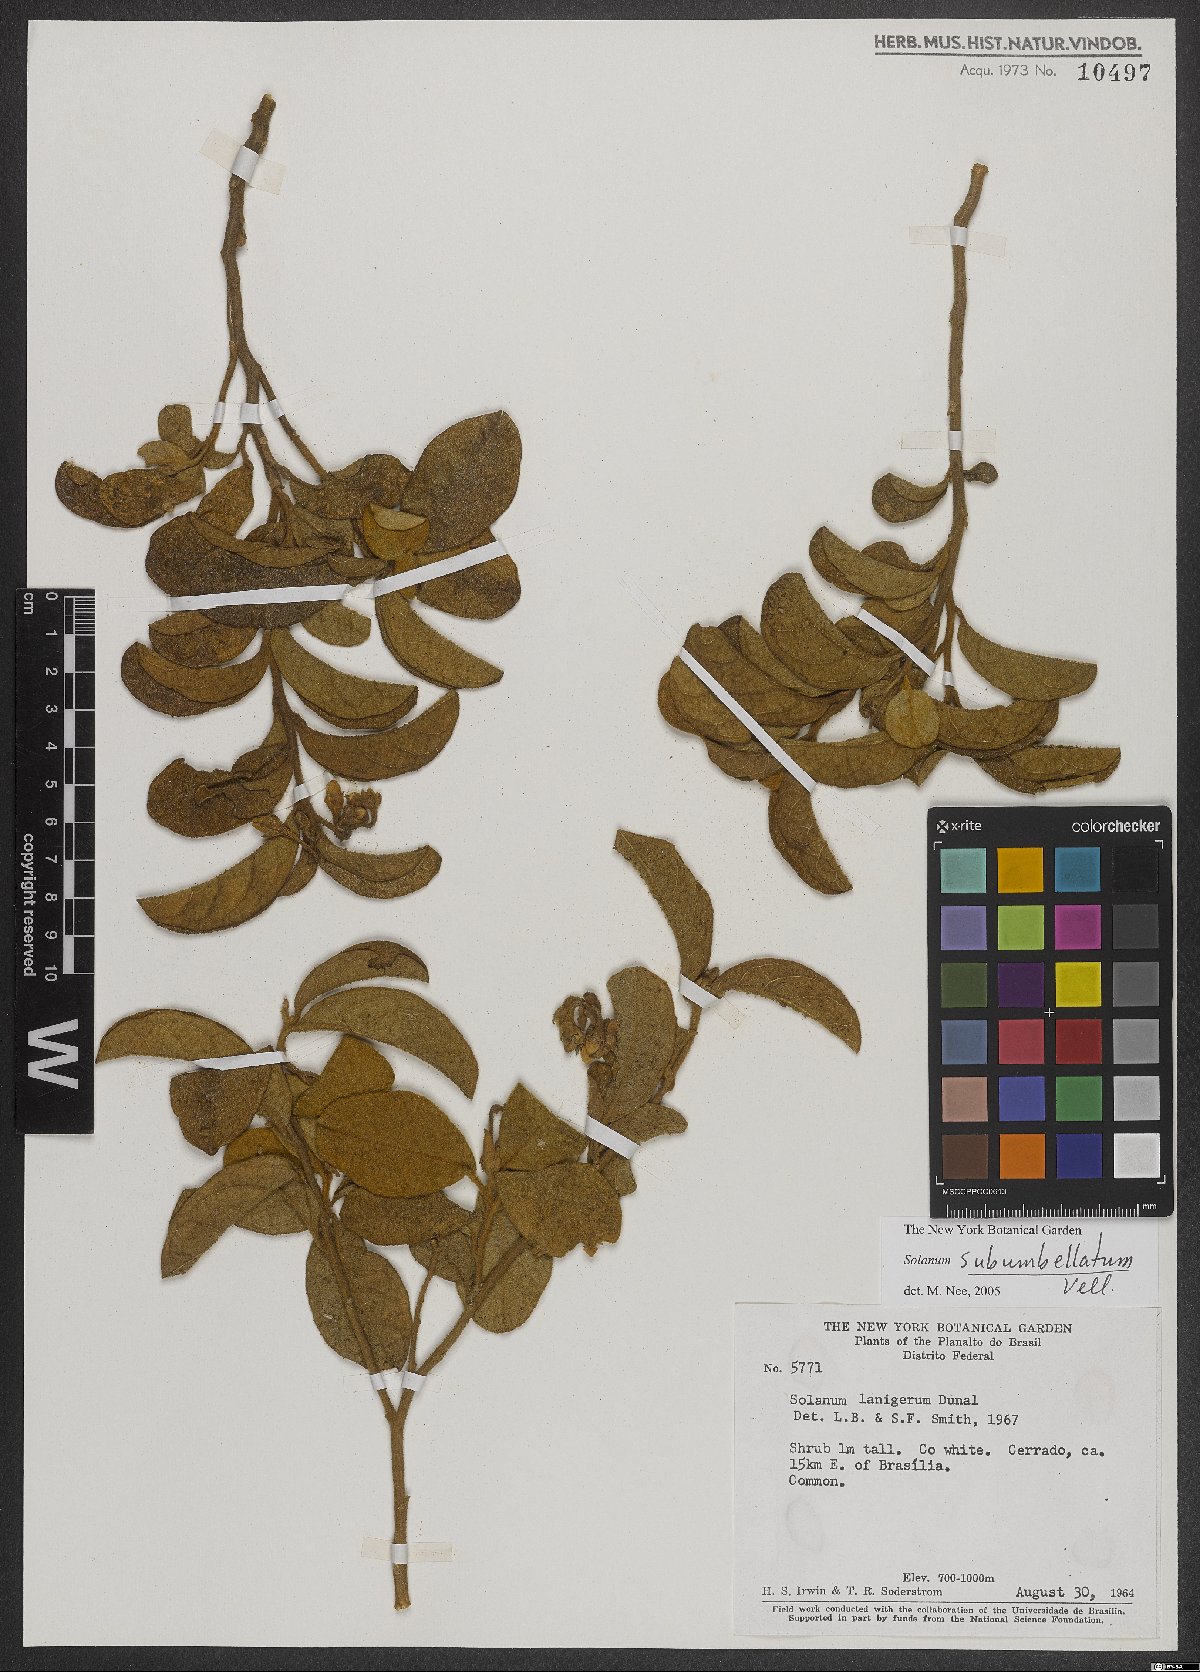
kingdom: Plantae
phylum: Tracheophyta
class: Magnoliopsida
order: Solanales
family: Solanaceae
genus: Solanum
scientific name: Solanum subumbellatum
